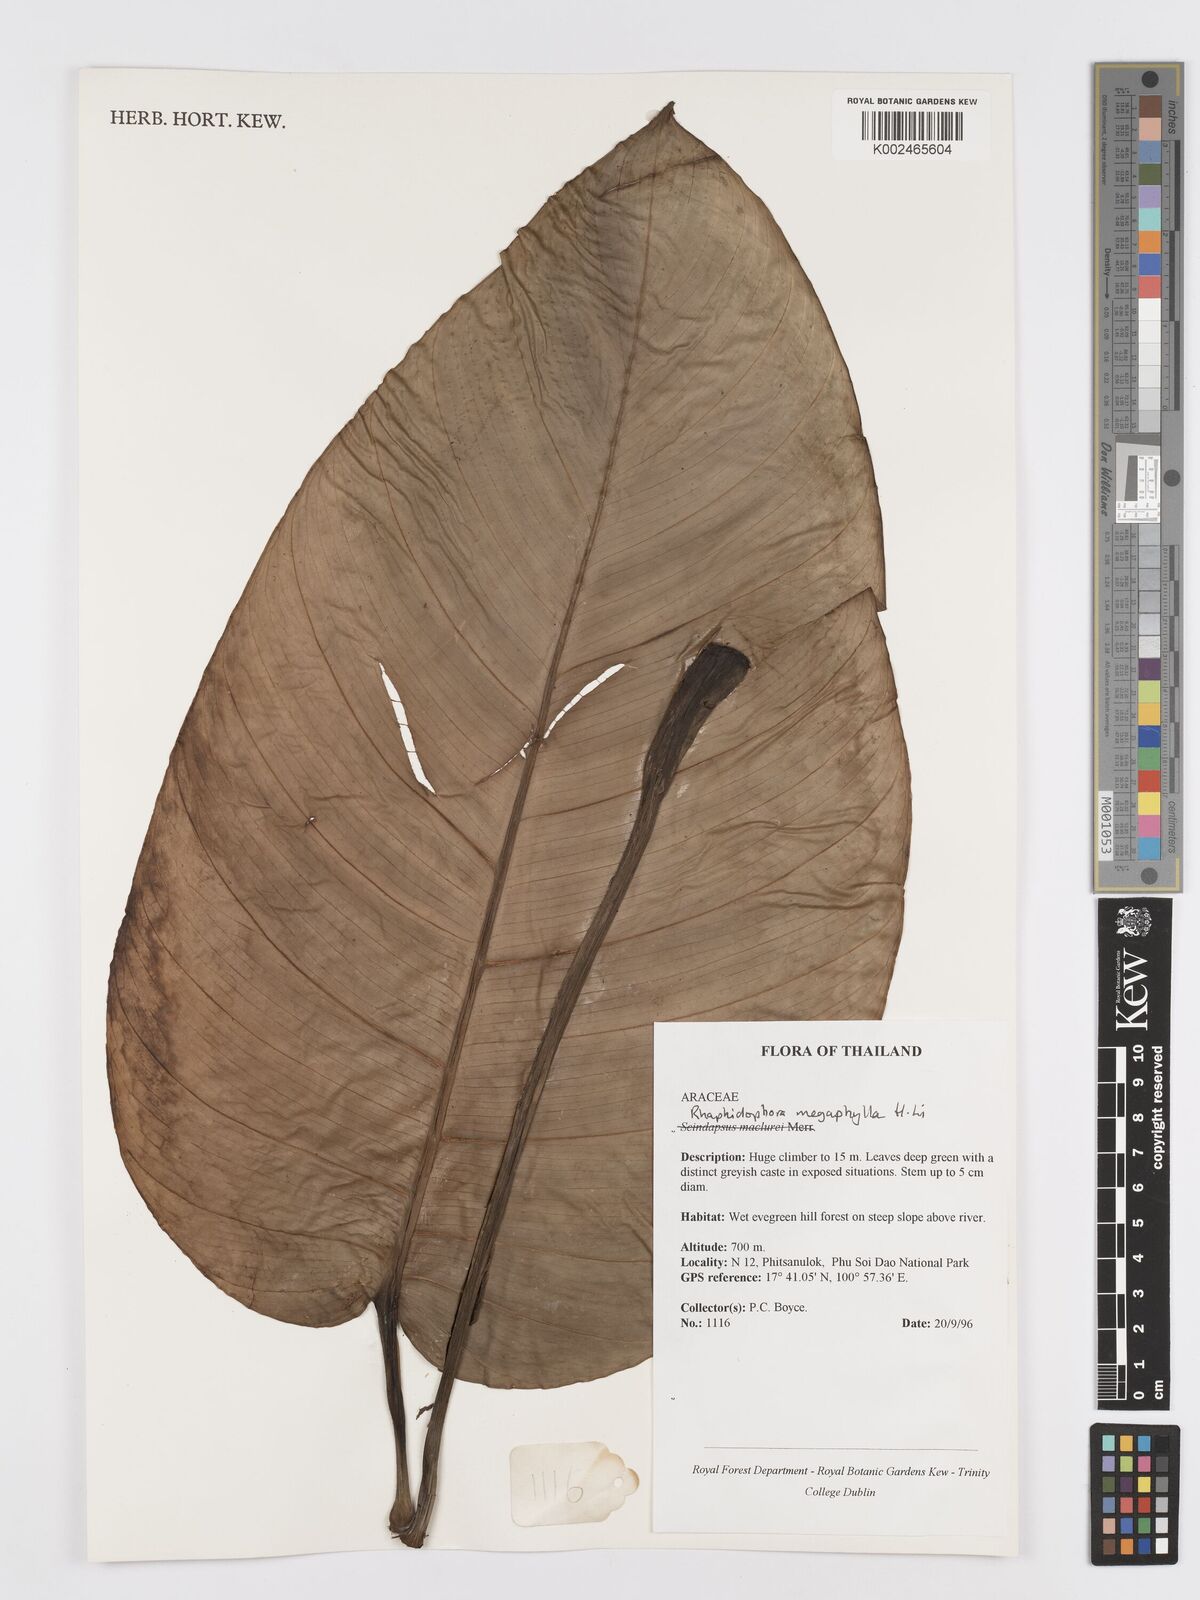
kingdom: Plantae
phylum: Tracheophyta
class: Liliopsida
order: Alismatales
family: Araceae
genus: Rhaphidophora
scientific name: Rhaphidophora megaphylla
